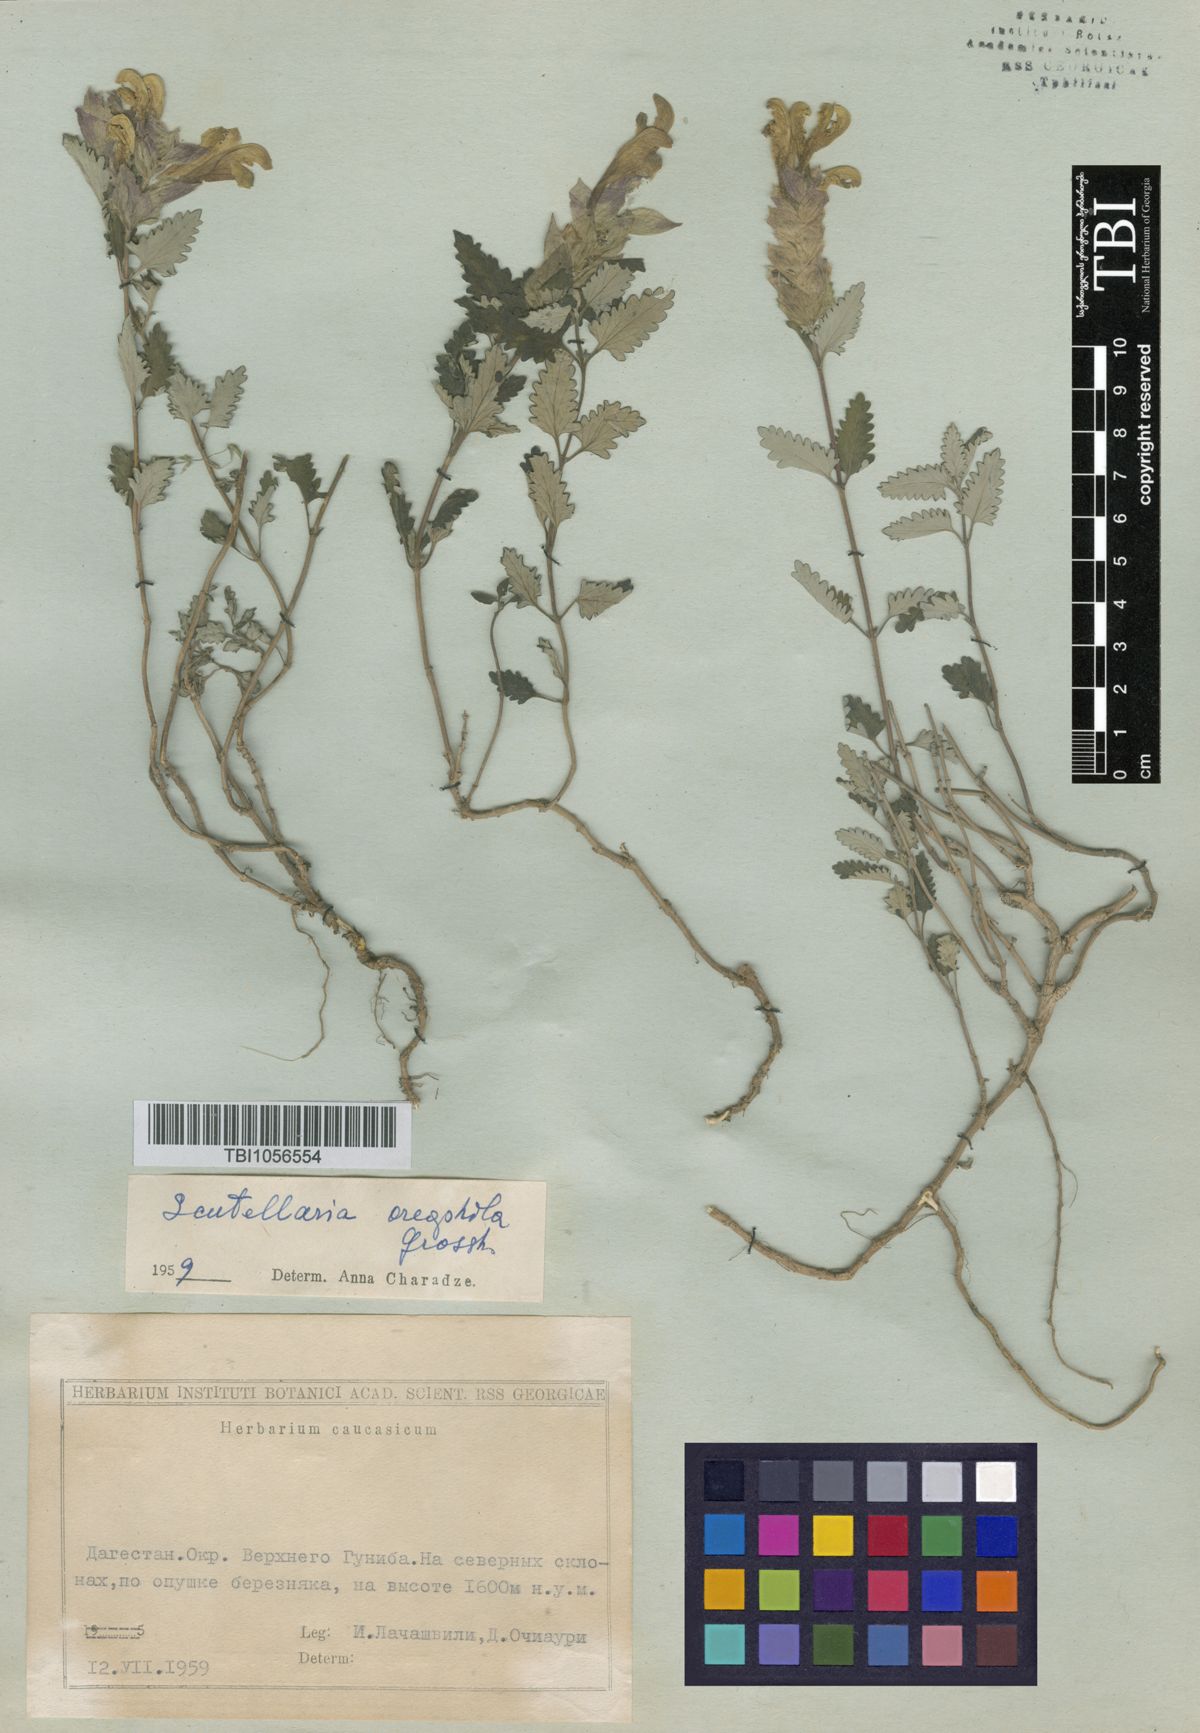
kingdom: Plantae
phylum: Tracheophyta
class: Magnoliopsida
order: Lamiales
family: Lamiaceae
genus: Scutellaria
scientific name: Scutellaria oreophila
